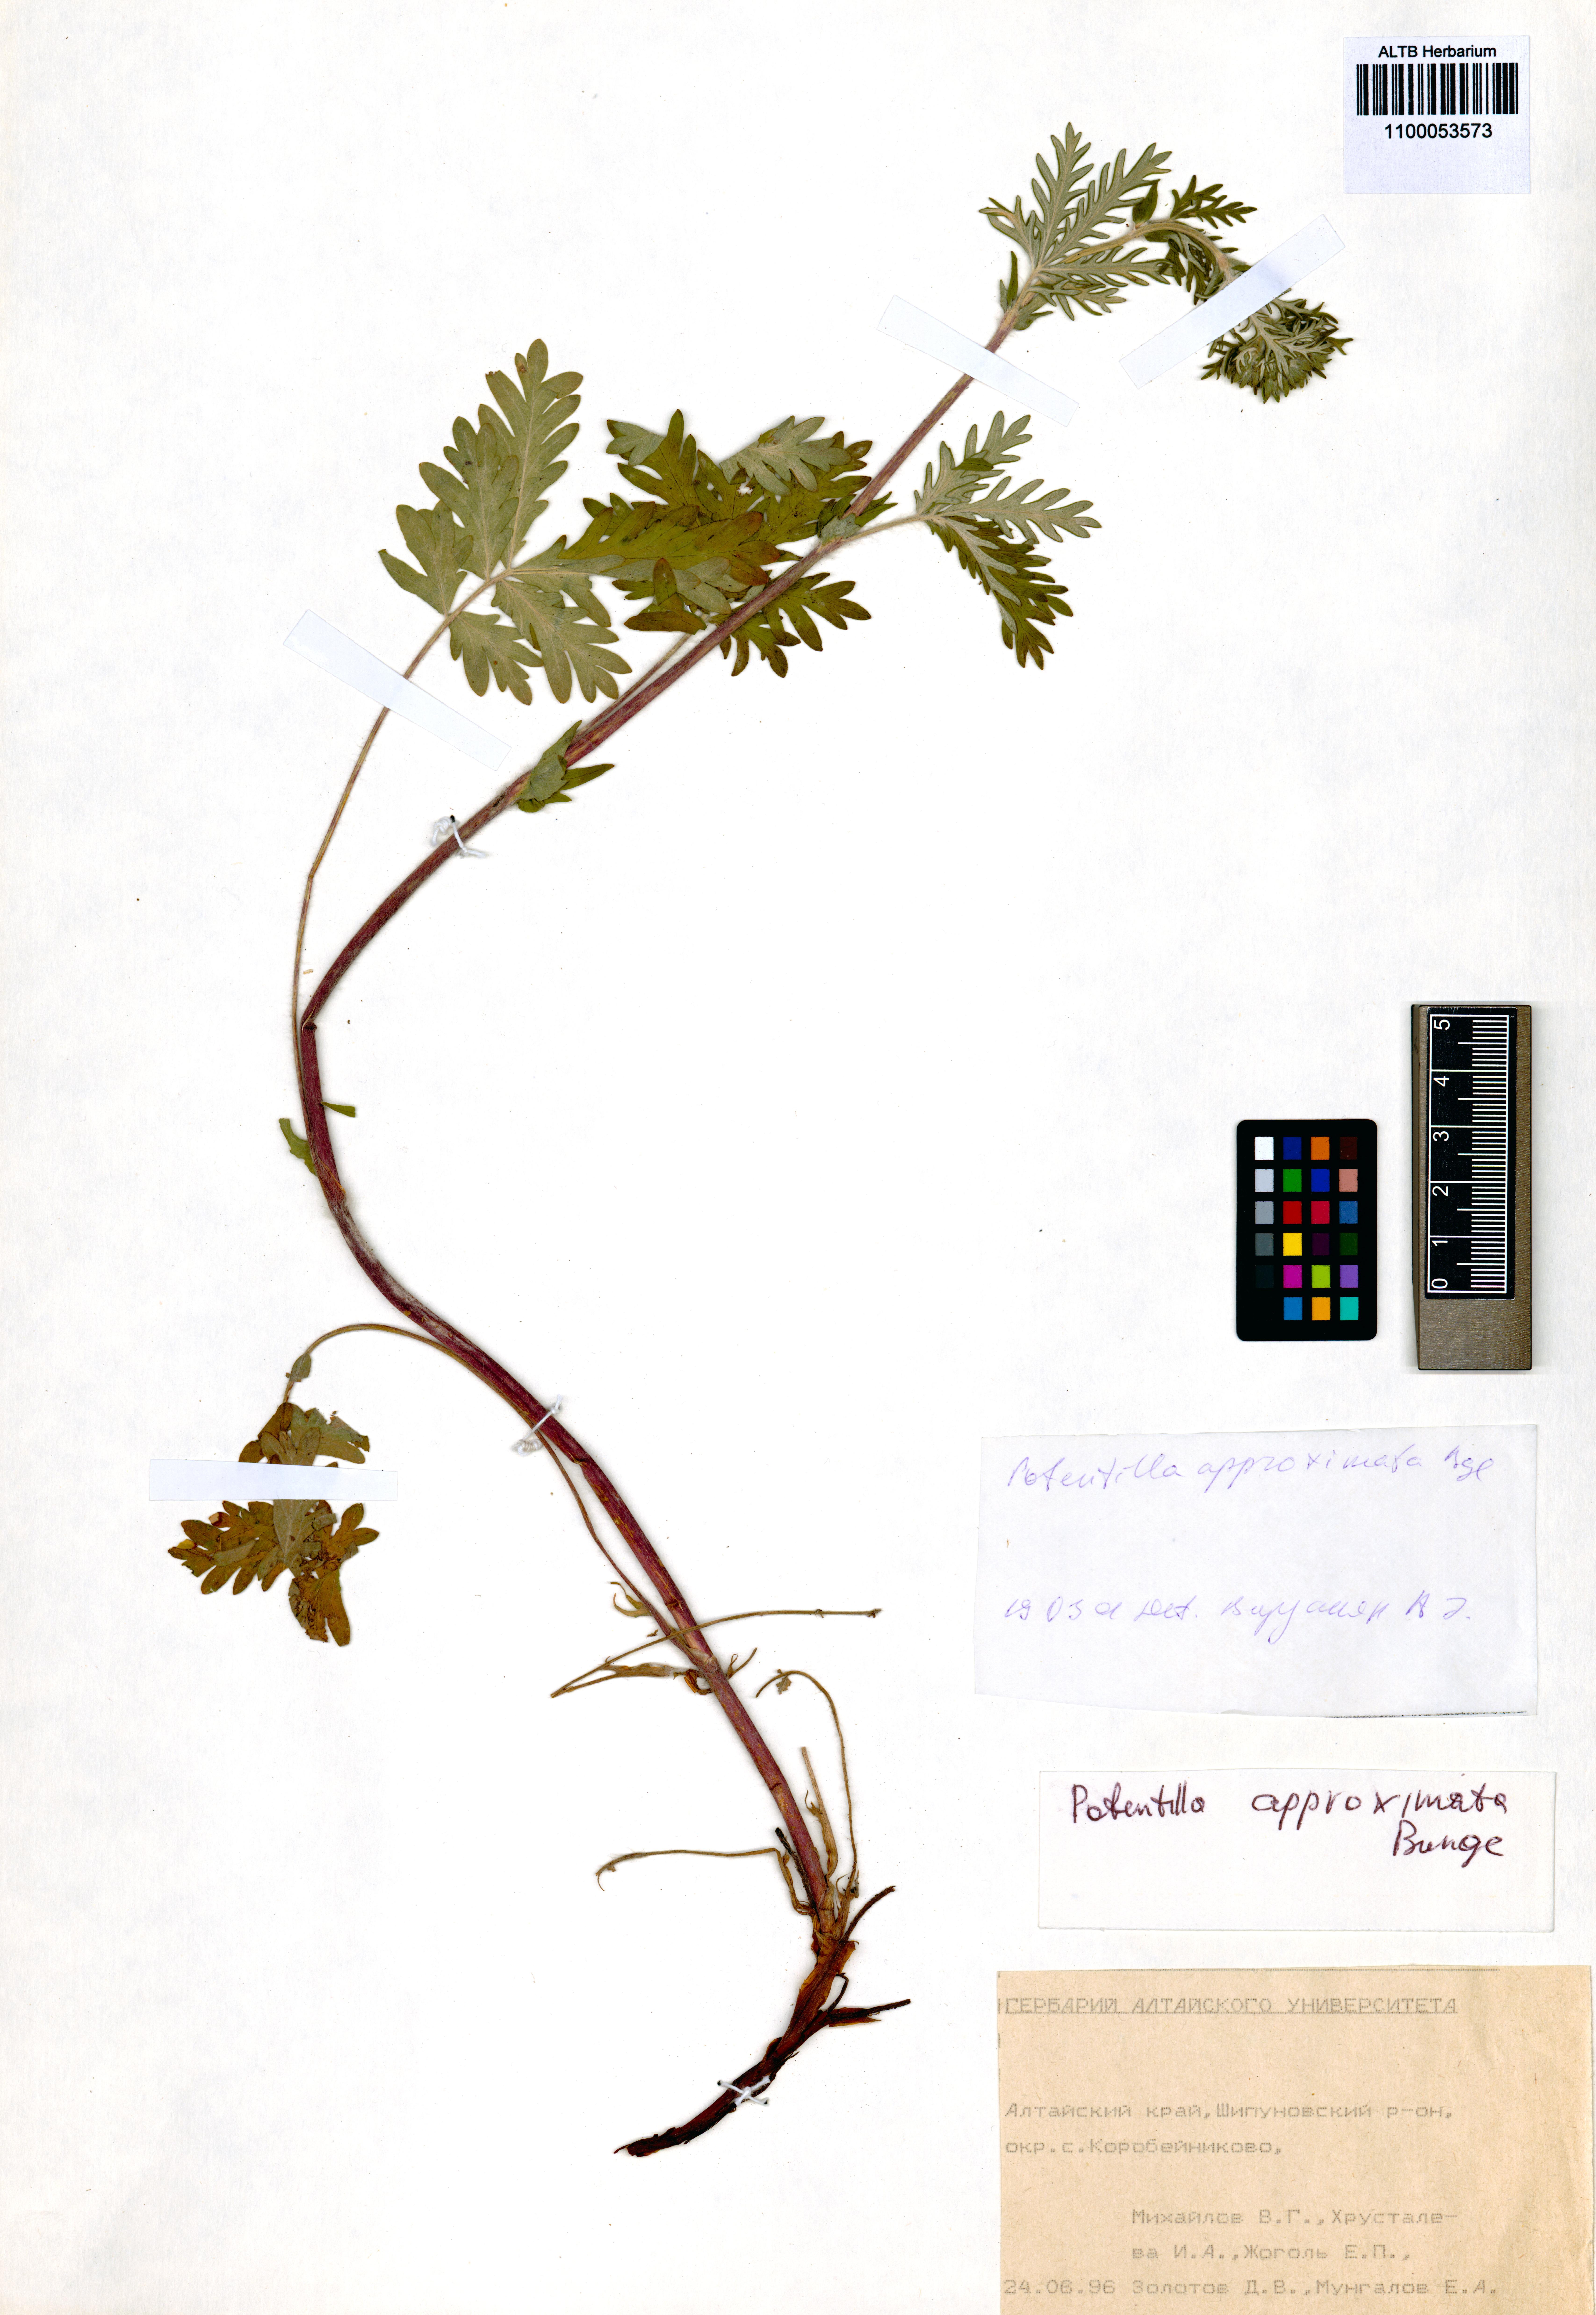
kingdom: Plantae
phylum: Tracheophyta
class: Magnoliopsida
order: Rosales
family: Rosaceae
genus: Potentilla
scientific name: Potentilla conferta
